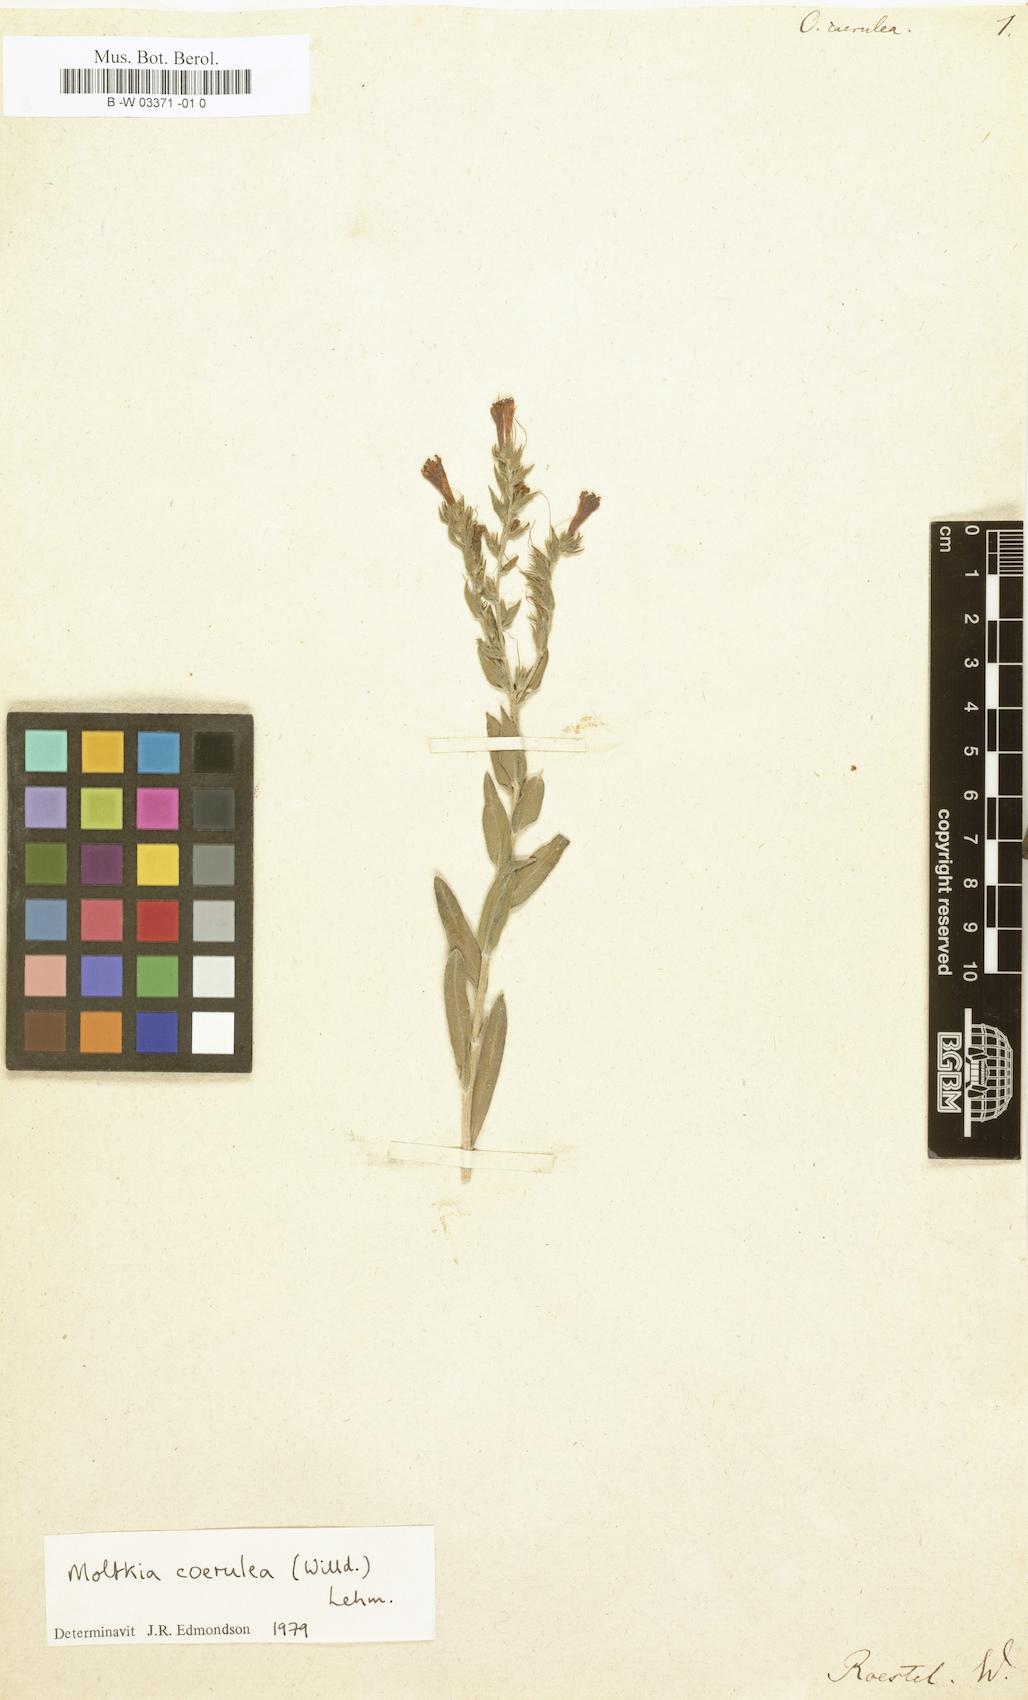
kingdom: Plantae
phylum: Tracheophyta
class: Magnoliopsida
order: Boraginales
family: Boraginaceae
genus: Moltkia
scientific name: Moltkia coerulea
